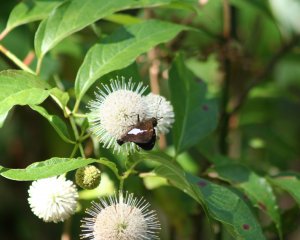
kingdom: Animalia
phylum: Arthropoda
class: Insecta
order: Lepidoptera
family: Hesperiidae
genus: Epargyreus
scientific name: Epargyreus clarus
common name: Silver-spotted Skipper
